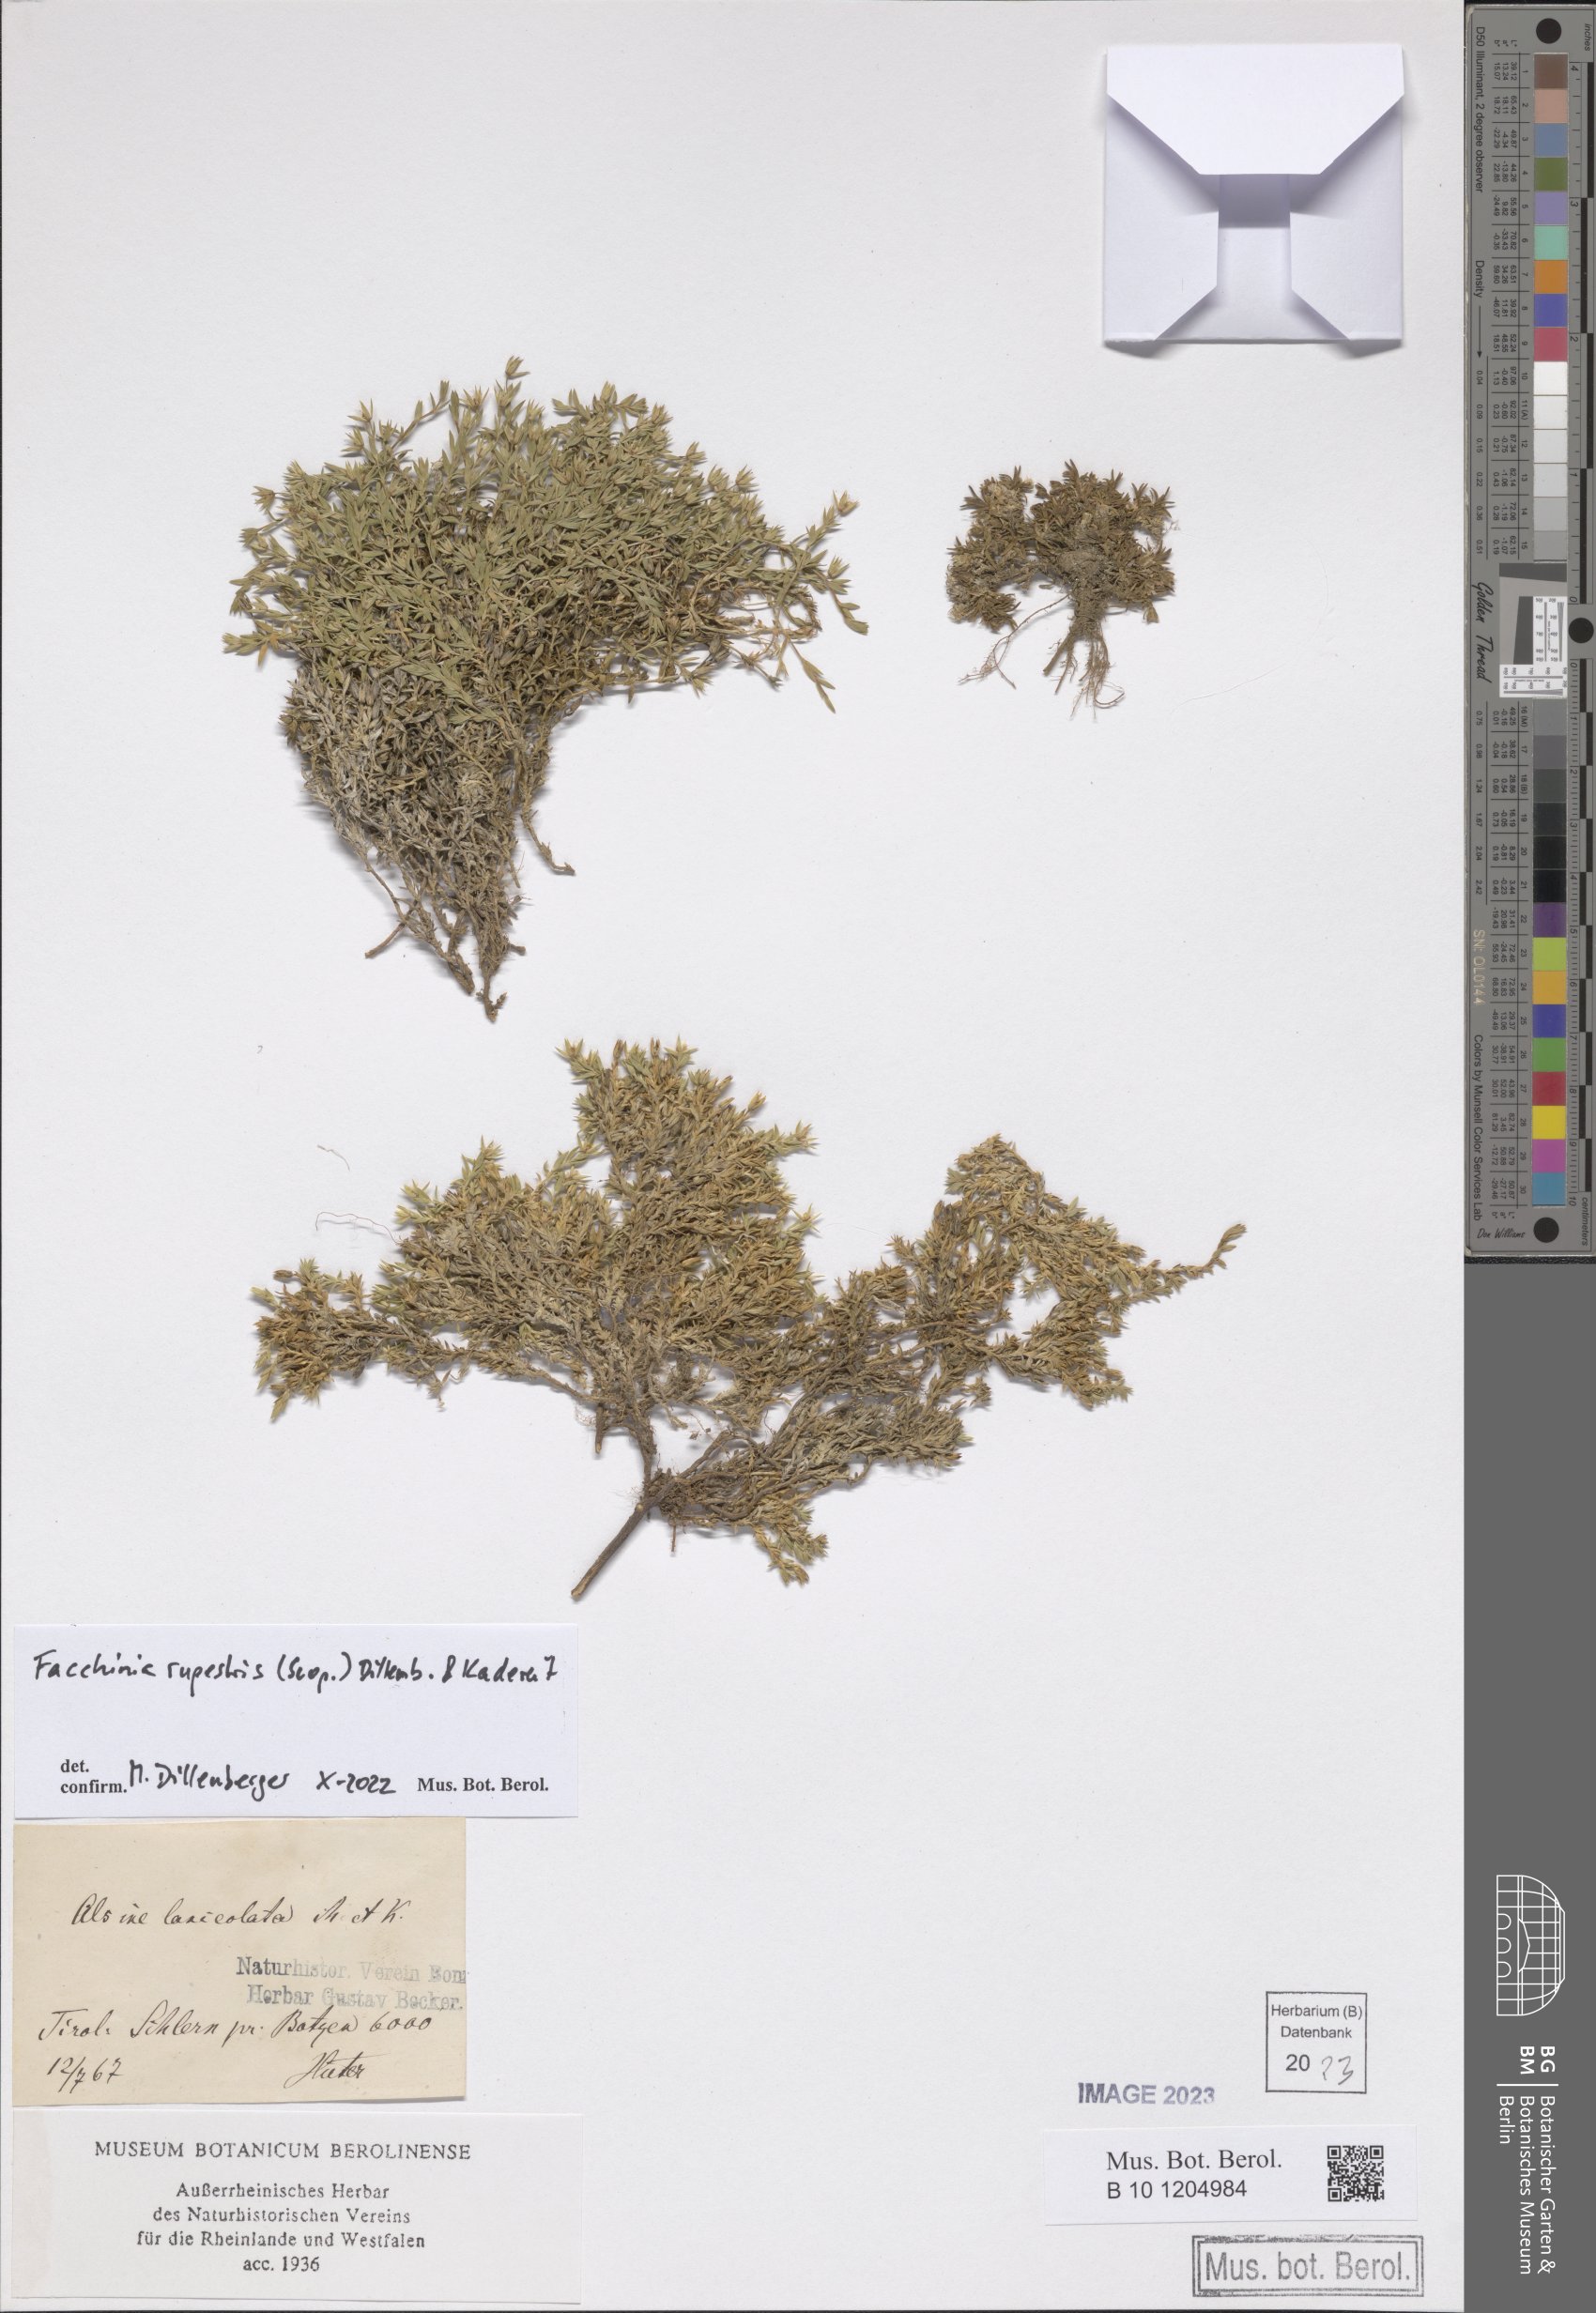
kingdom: Plantae
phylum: Tracheophyta
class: Magnoliopsida
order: Caryophyllales
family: Caryophyllaceae
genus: Facchinia
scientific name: Facchinia rupestris
